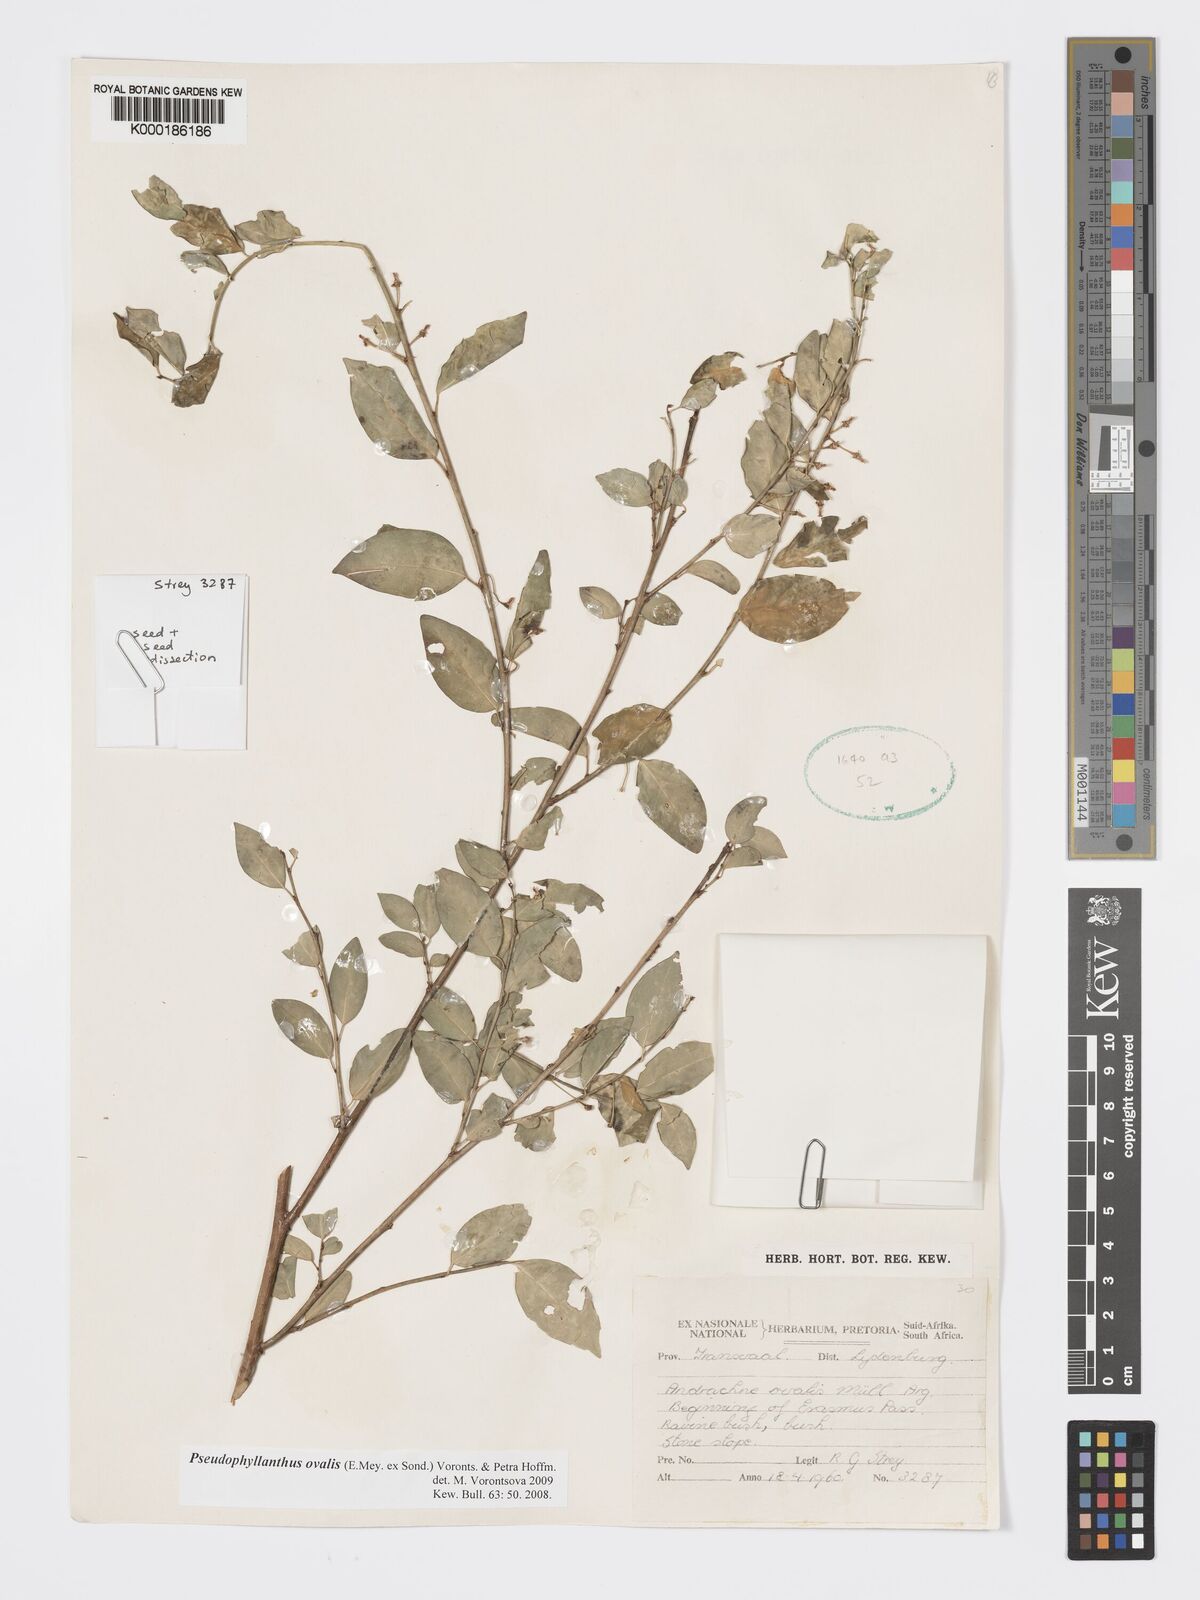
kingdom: Plantae
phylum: Tracheophyta
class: Magnoliopsida
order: Malpighiales
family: Phyllanthaceae
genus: Pseudophyllanthus
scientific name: Pseudophyllanthus ovalis
